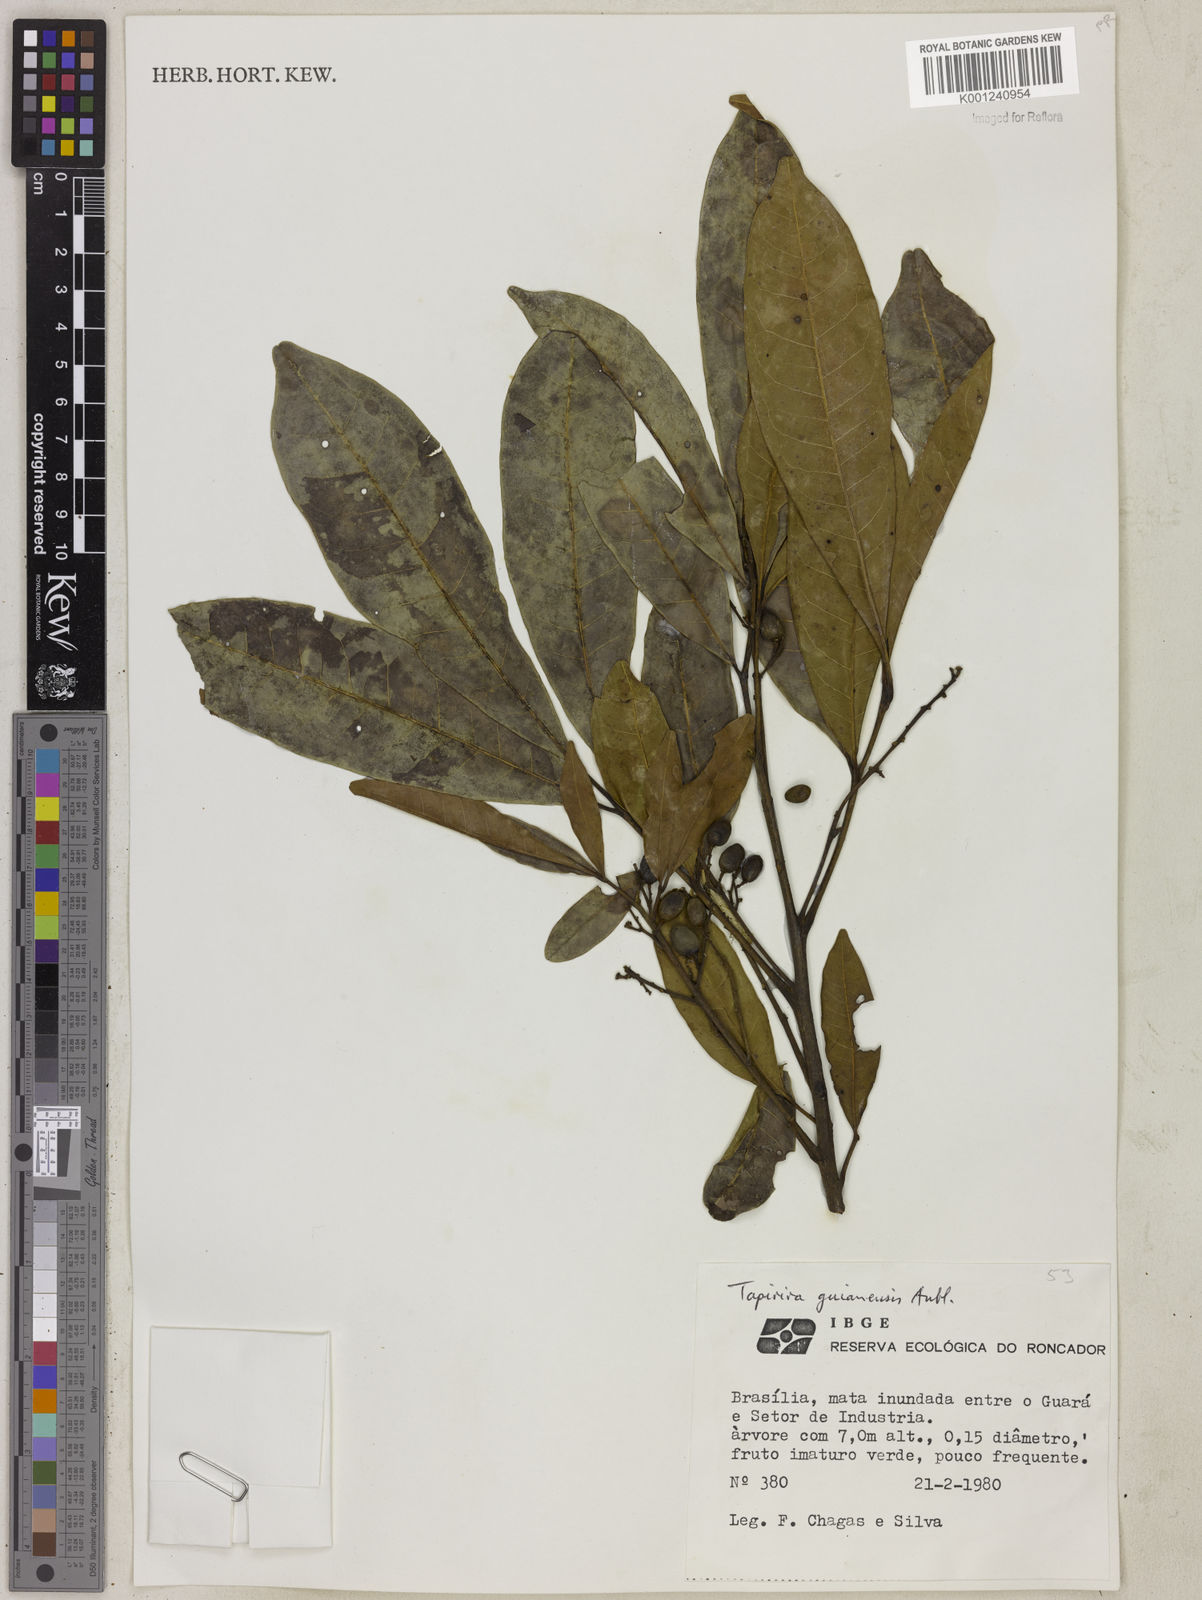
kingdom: Plantae
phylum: Tracheophyta
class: Magnoliopsida
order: Sapindales
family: Anacardiaceae
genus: Tapirira
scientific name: Tapirira guianensis
